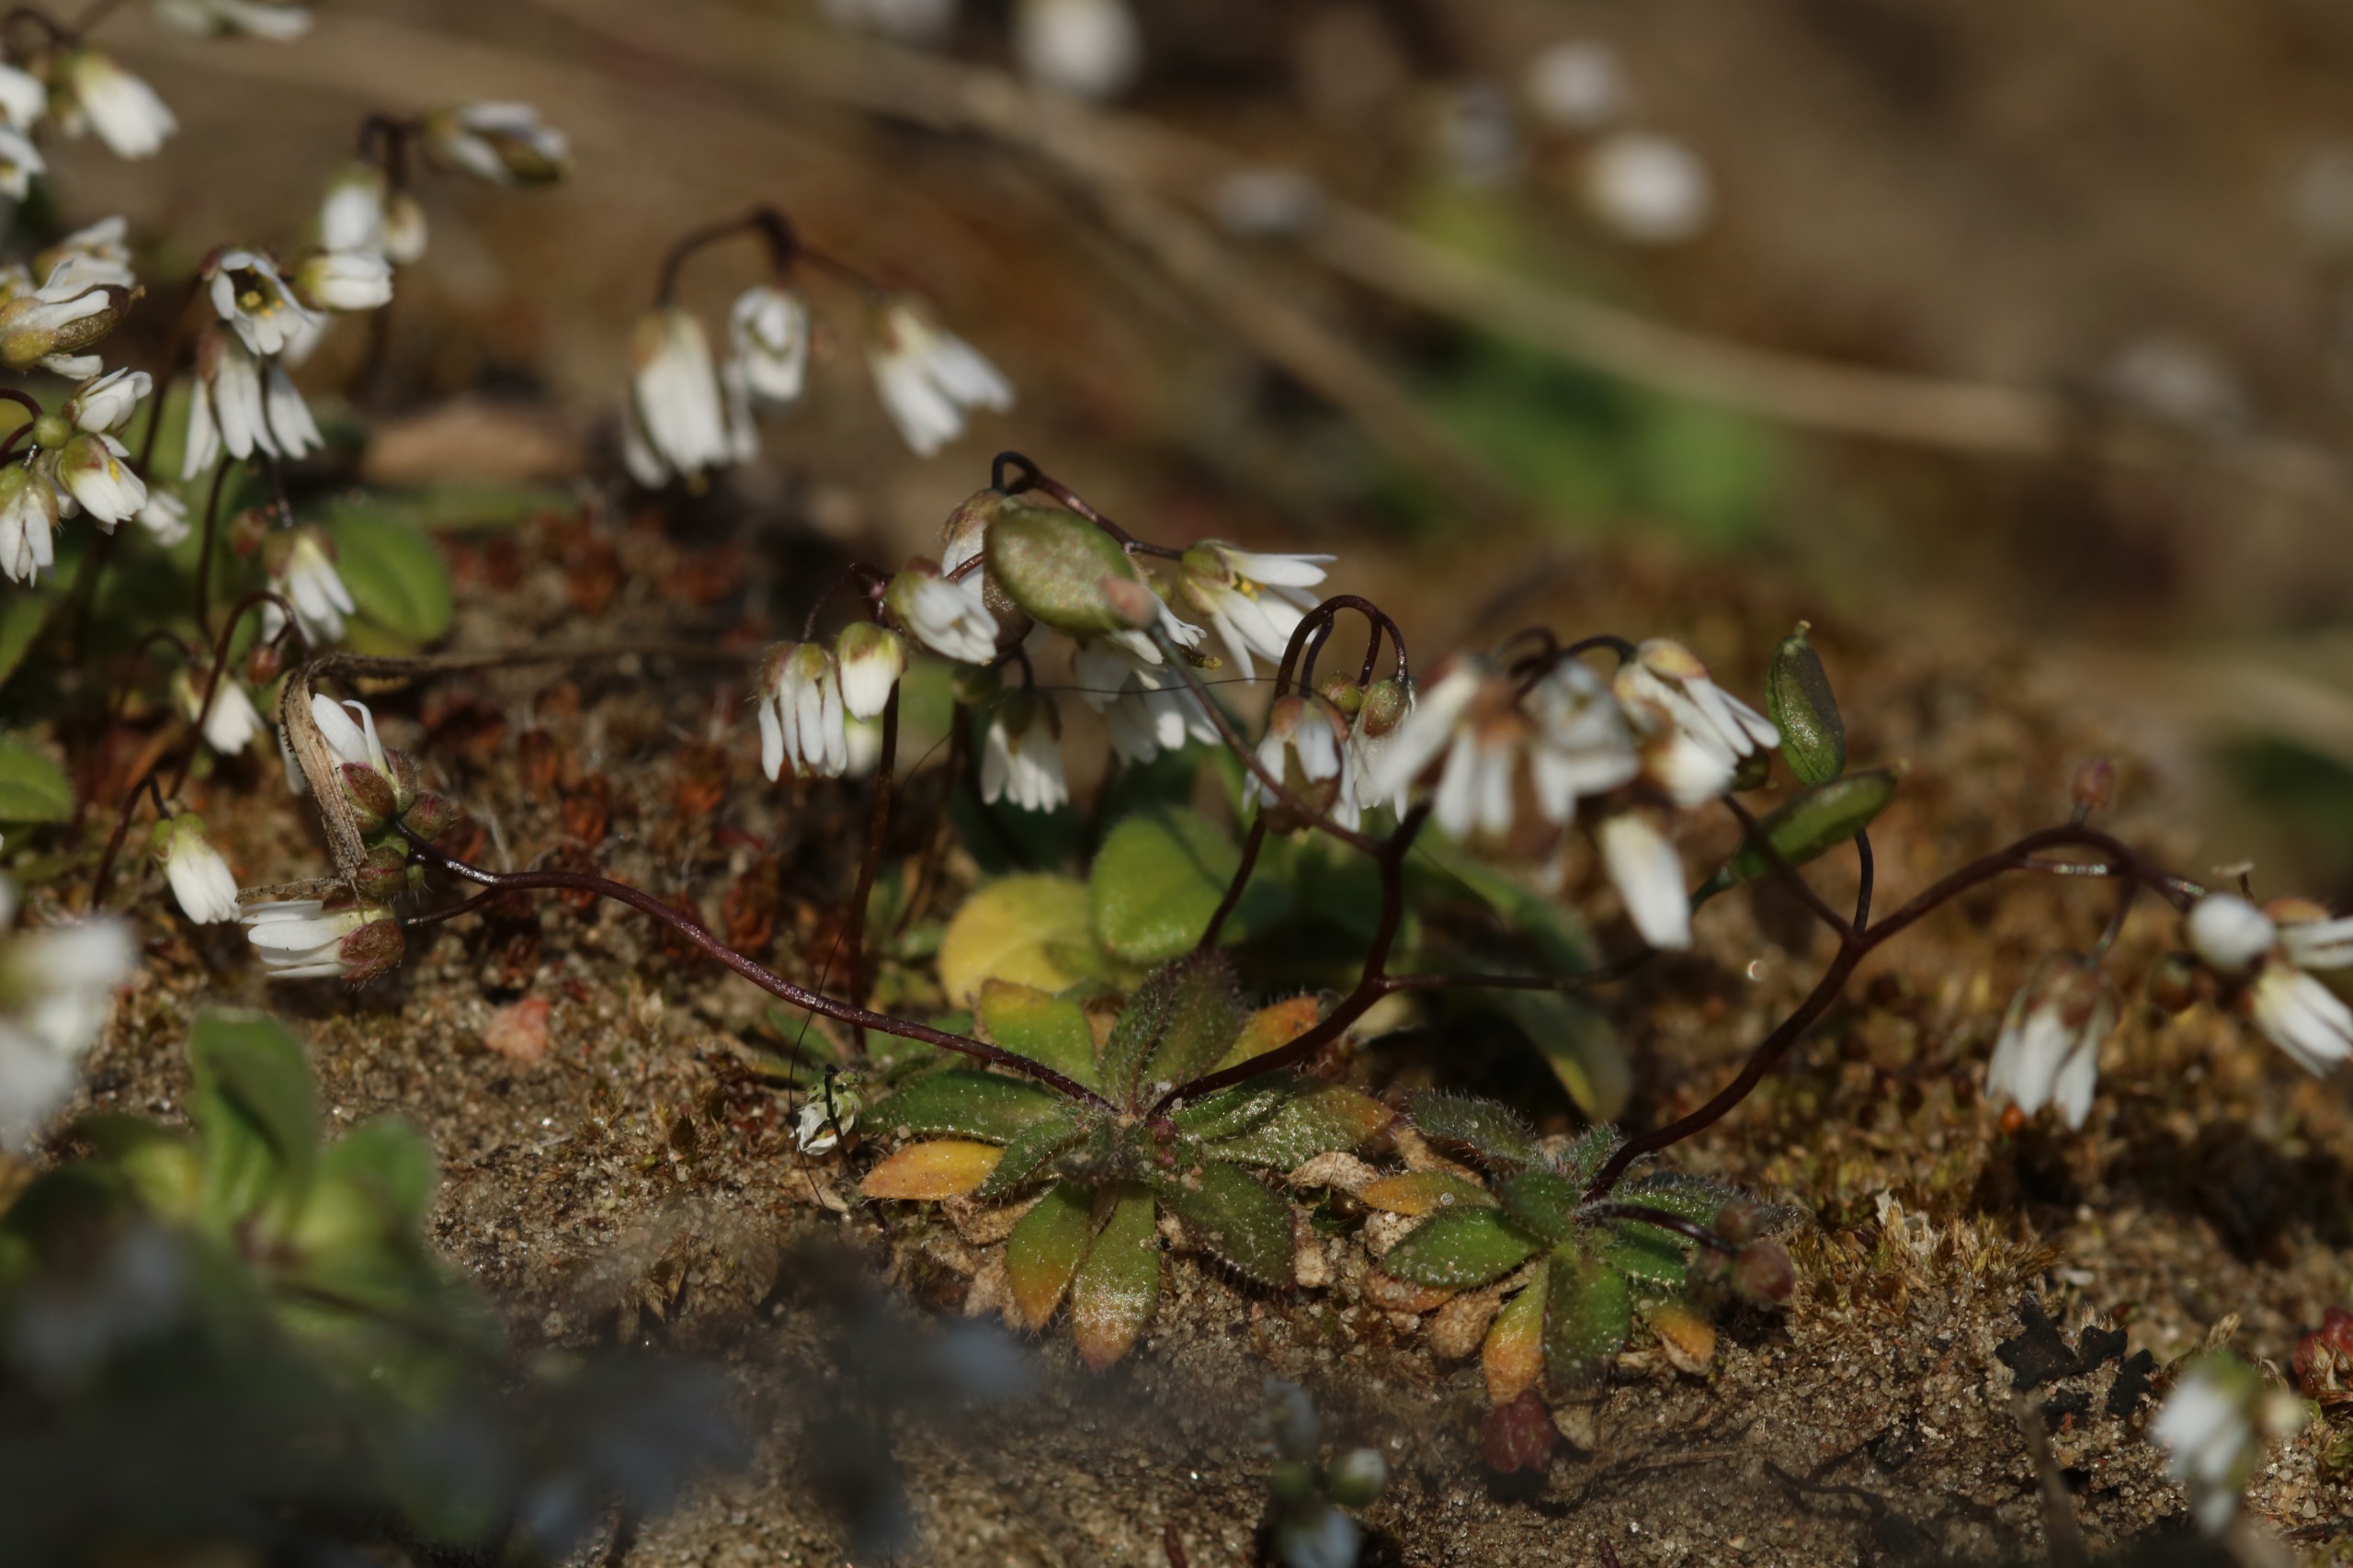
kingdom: Plantae
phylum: Tracheophyta
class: Magnoliopsida
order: Brassicales
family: Brassicaceae
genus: Draba
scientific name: Draba verna
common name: Vår-gæslingeblomst
